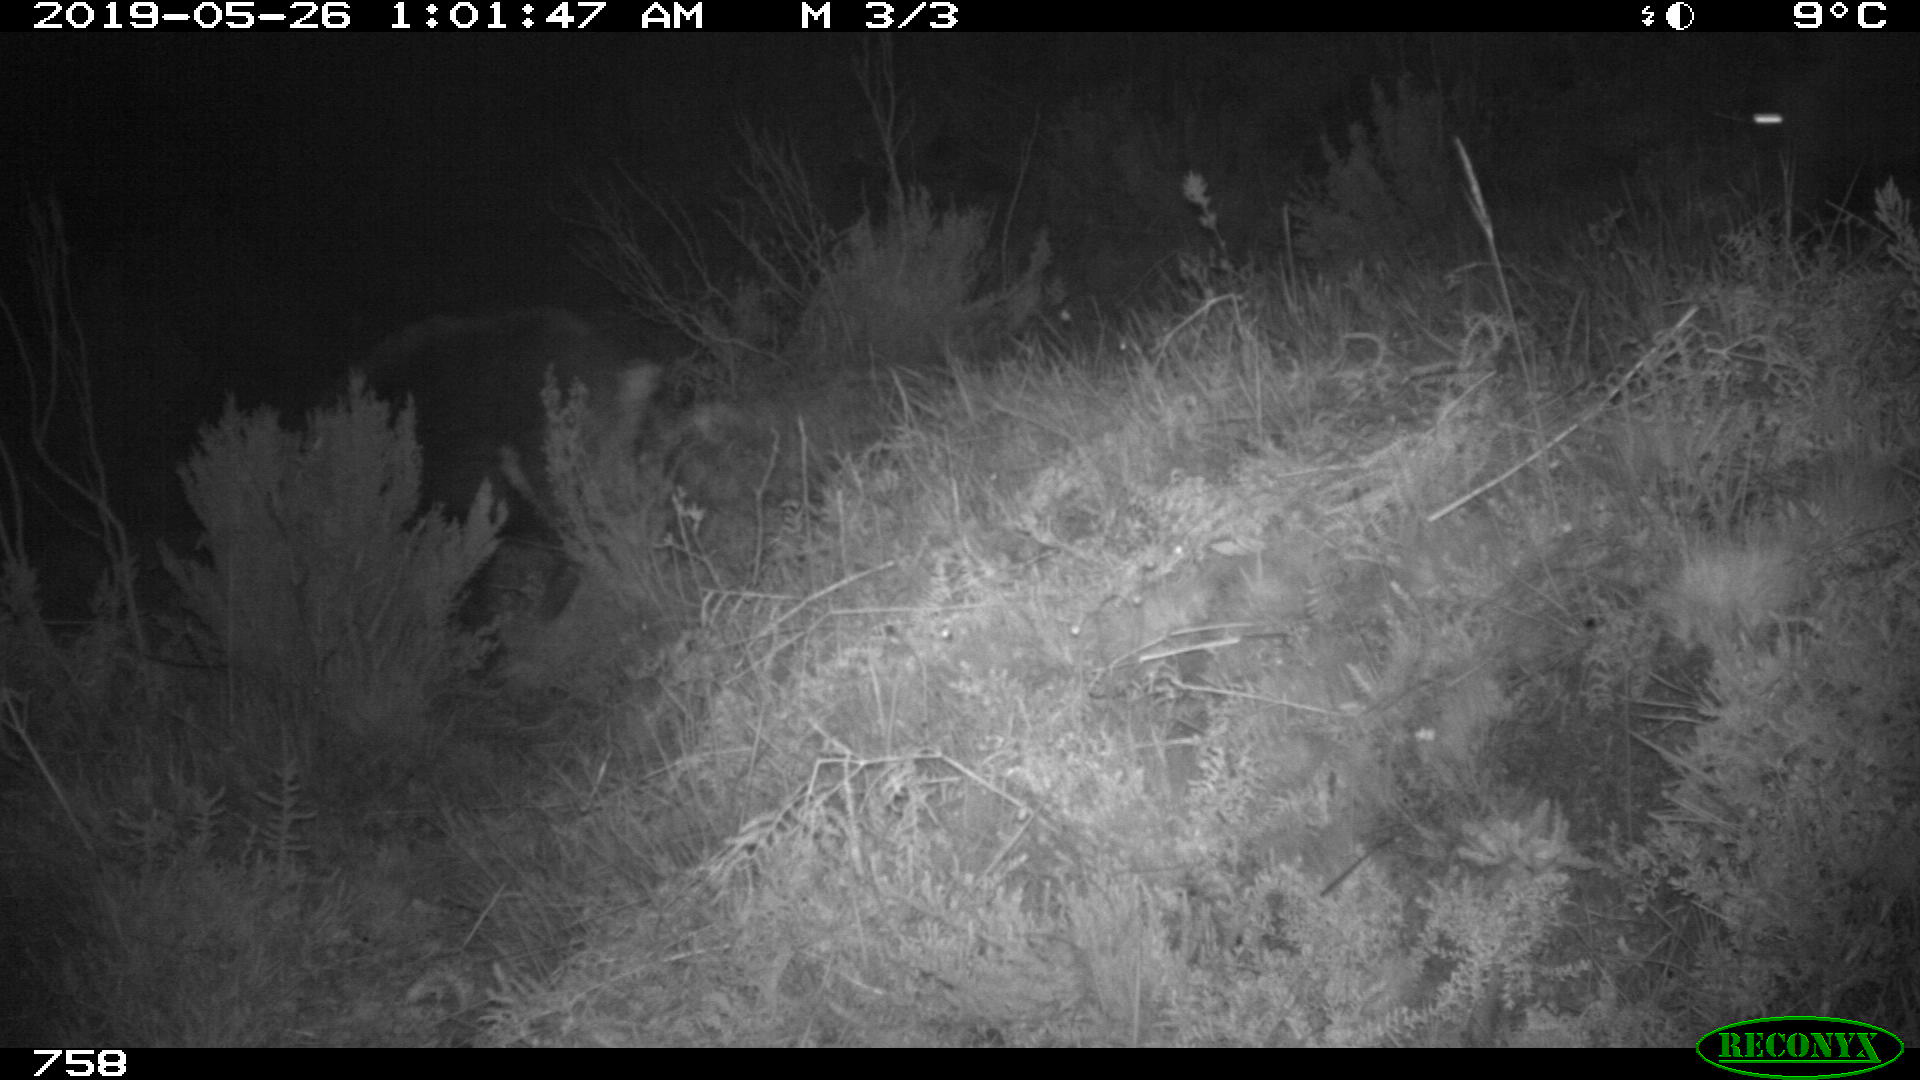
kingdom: Animalia
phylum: Chordata
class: Mammalia
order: Artiodactyla
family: Suidae
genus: Sus
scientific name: Sus scrofa
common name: Wild boar
